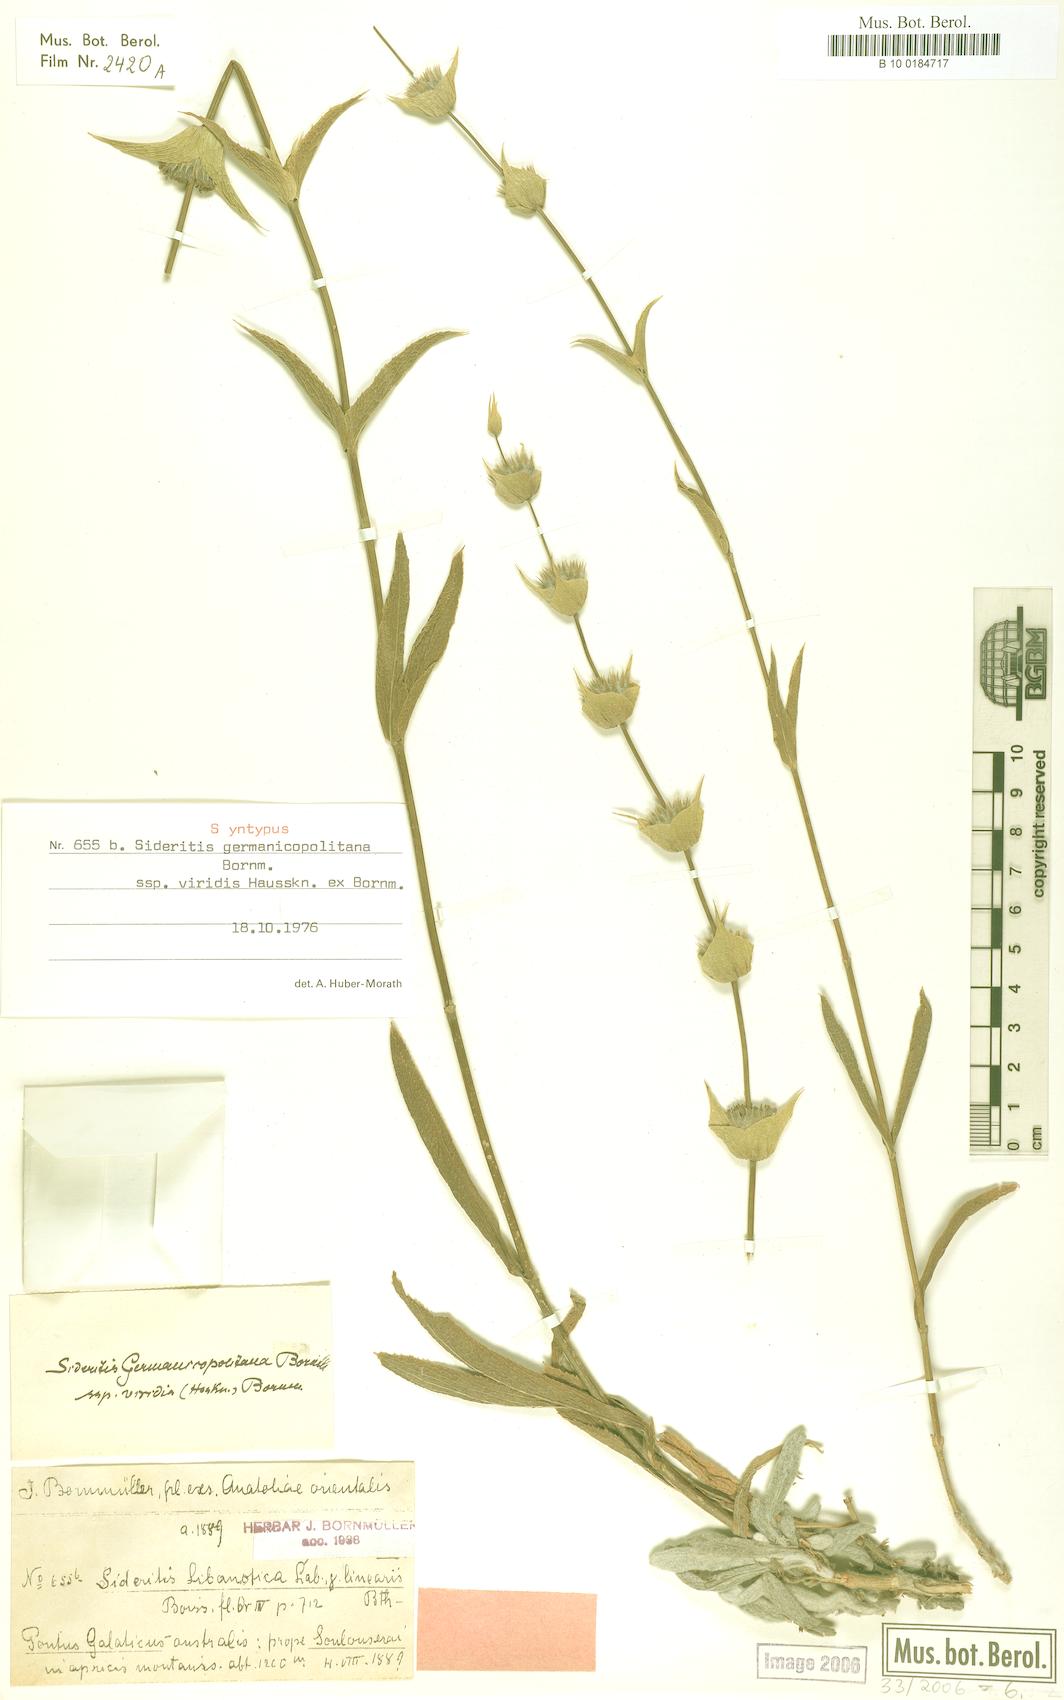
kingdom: Plantae
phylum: Tracheophyta
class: Magnoliopsida
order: Lamiales
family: Lamiaceae
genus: Sideritis
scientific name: Sideritis germanicopolitana
